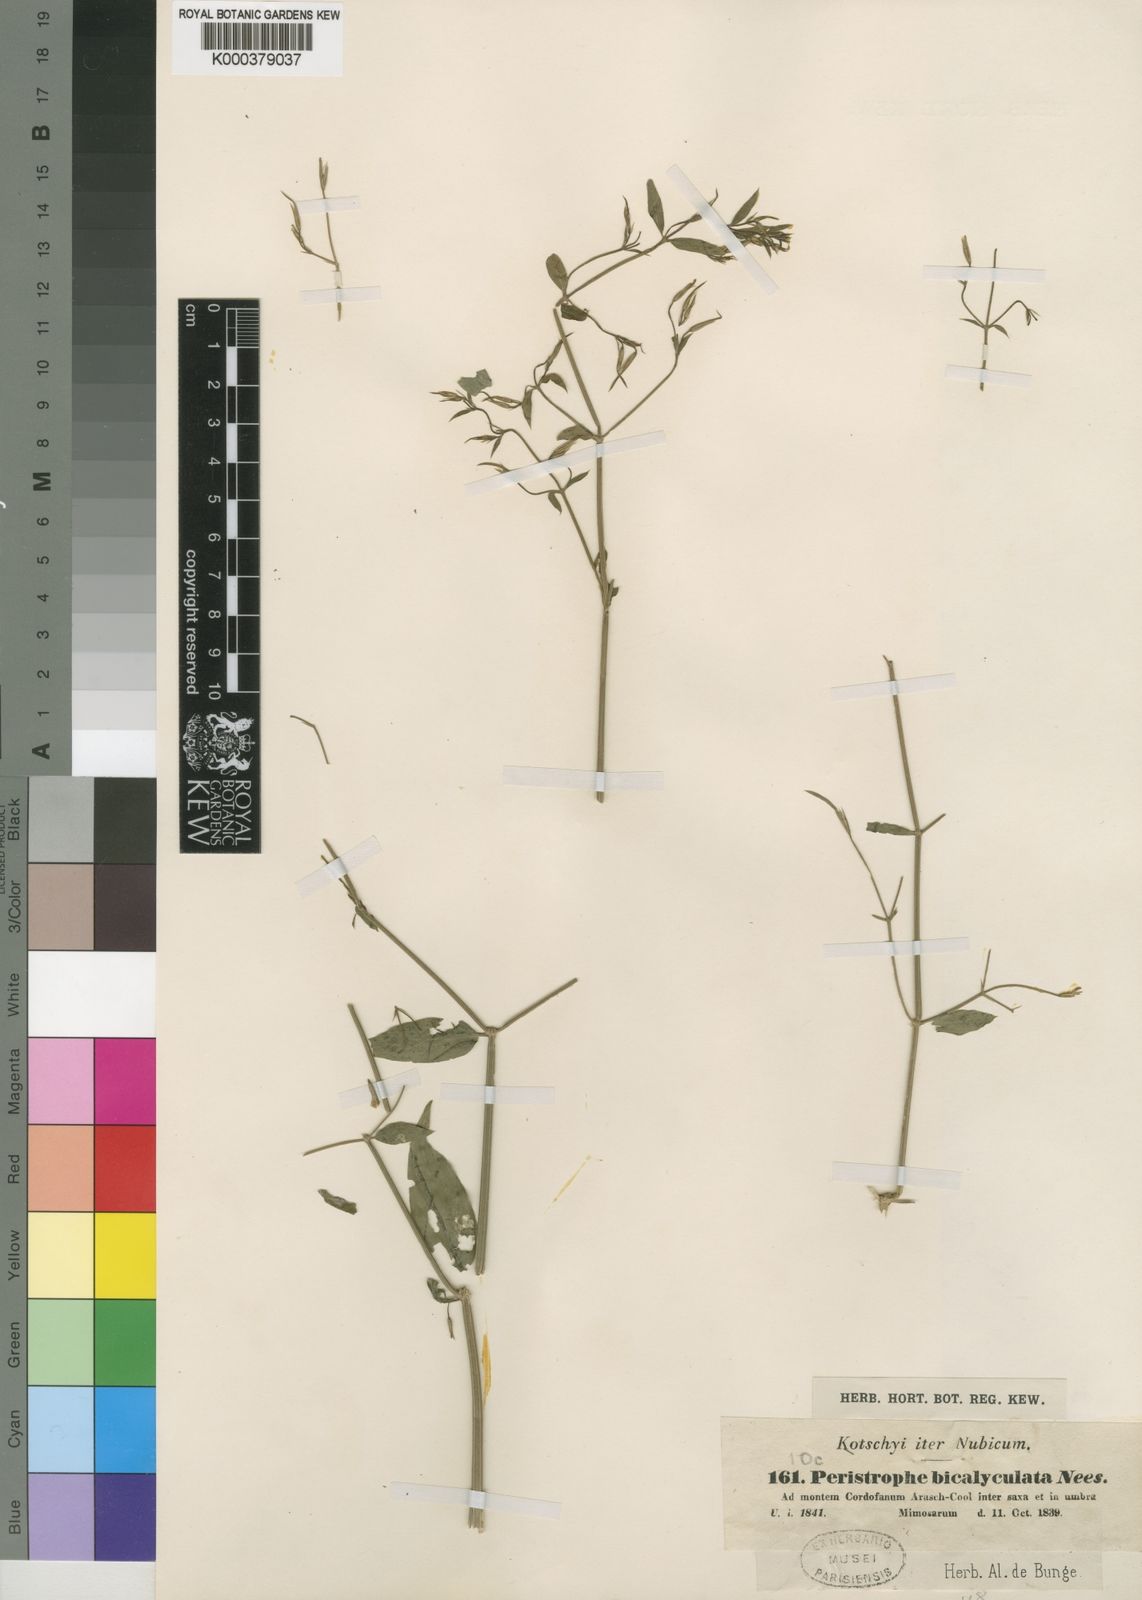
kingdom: Plantae
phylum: Tracheophyta
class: Magnoliopsida
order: Lamiales
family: Acanthaceae
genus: Dicliptera
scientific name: Dicliptera paniculata
